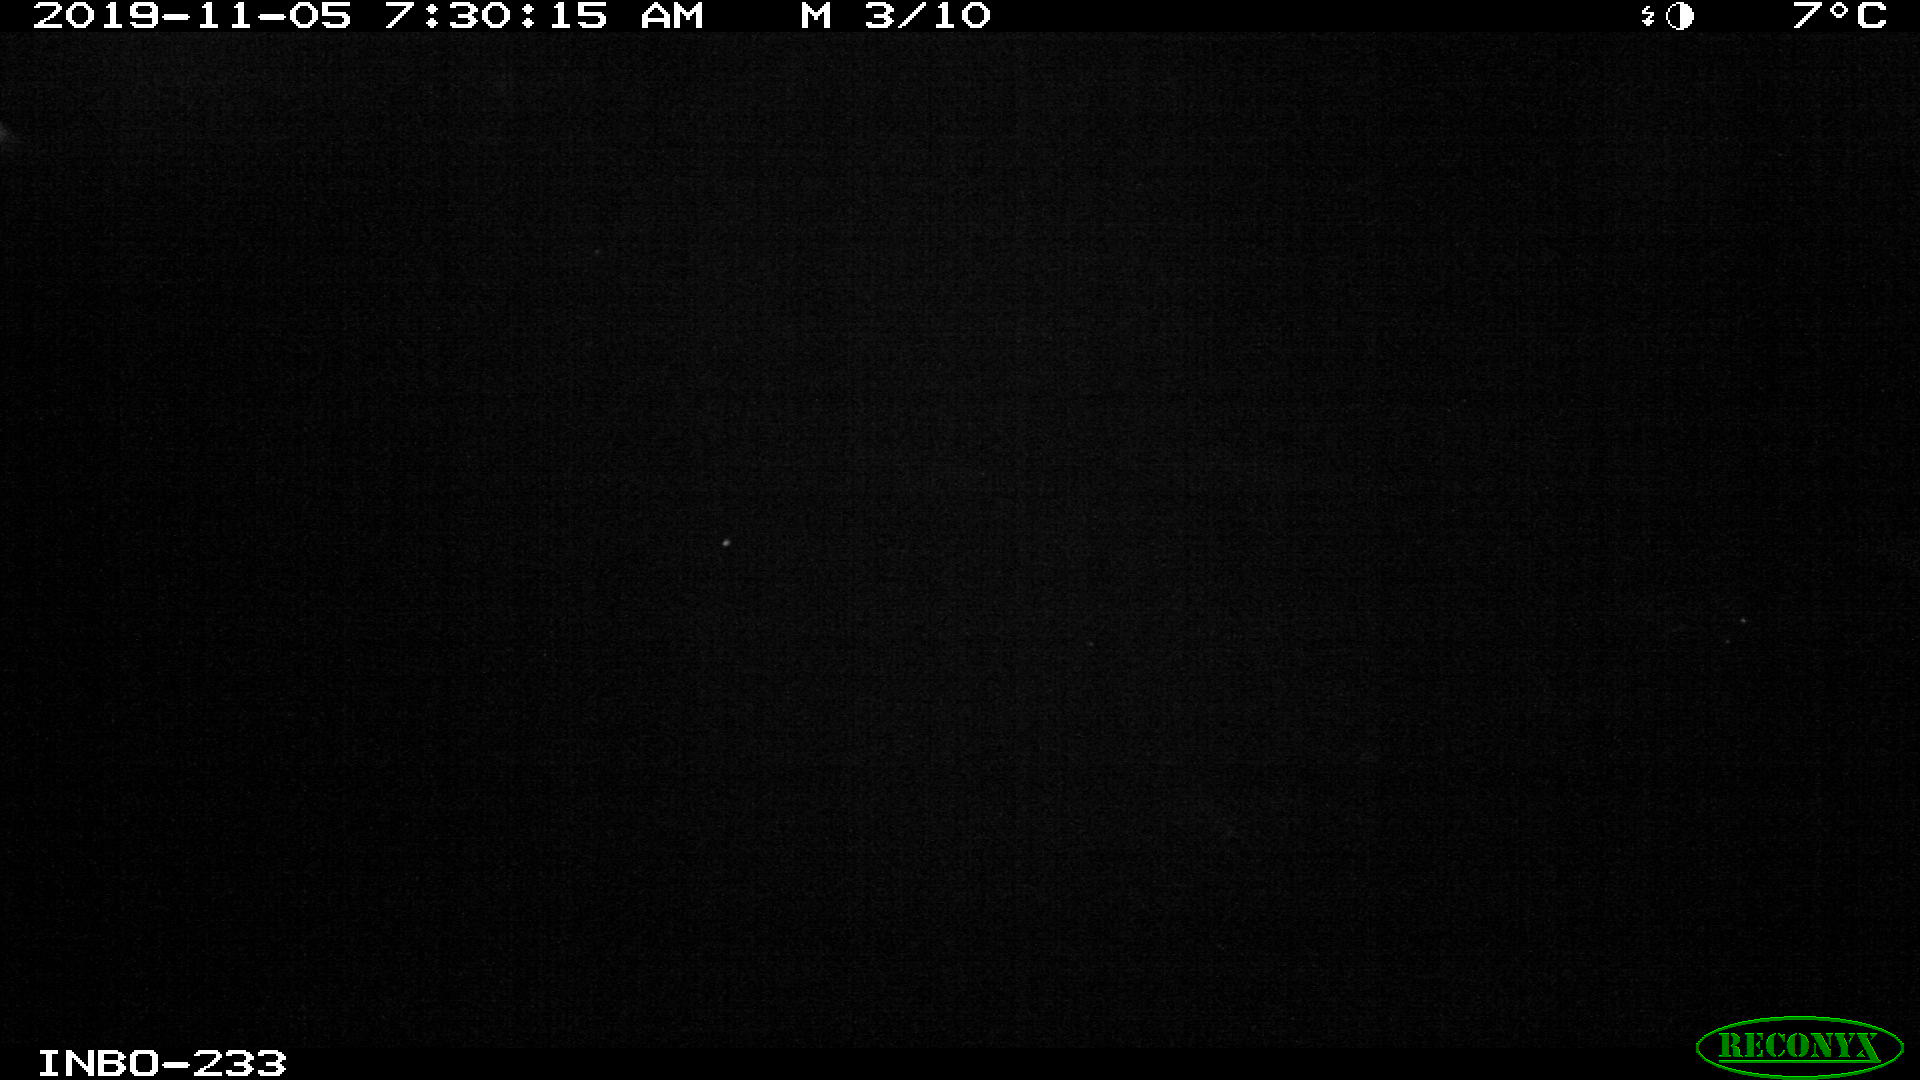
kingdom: Animalia
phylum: Chordata
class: Aves
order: Anseriformes
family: Anatidae
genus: Anas
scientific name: Anas platyrhynchos
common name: Mallard
